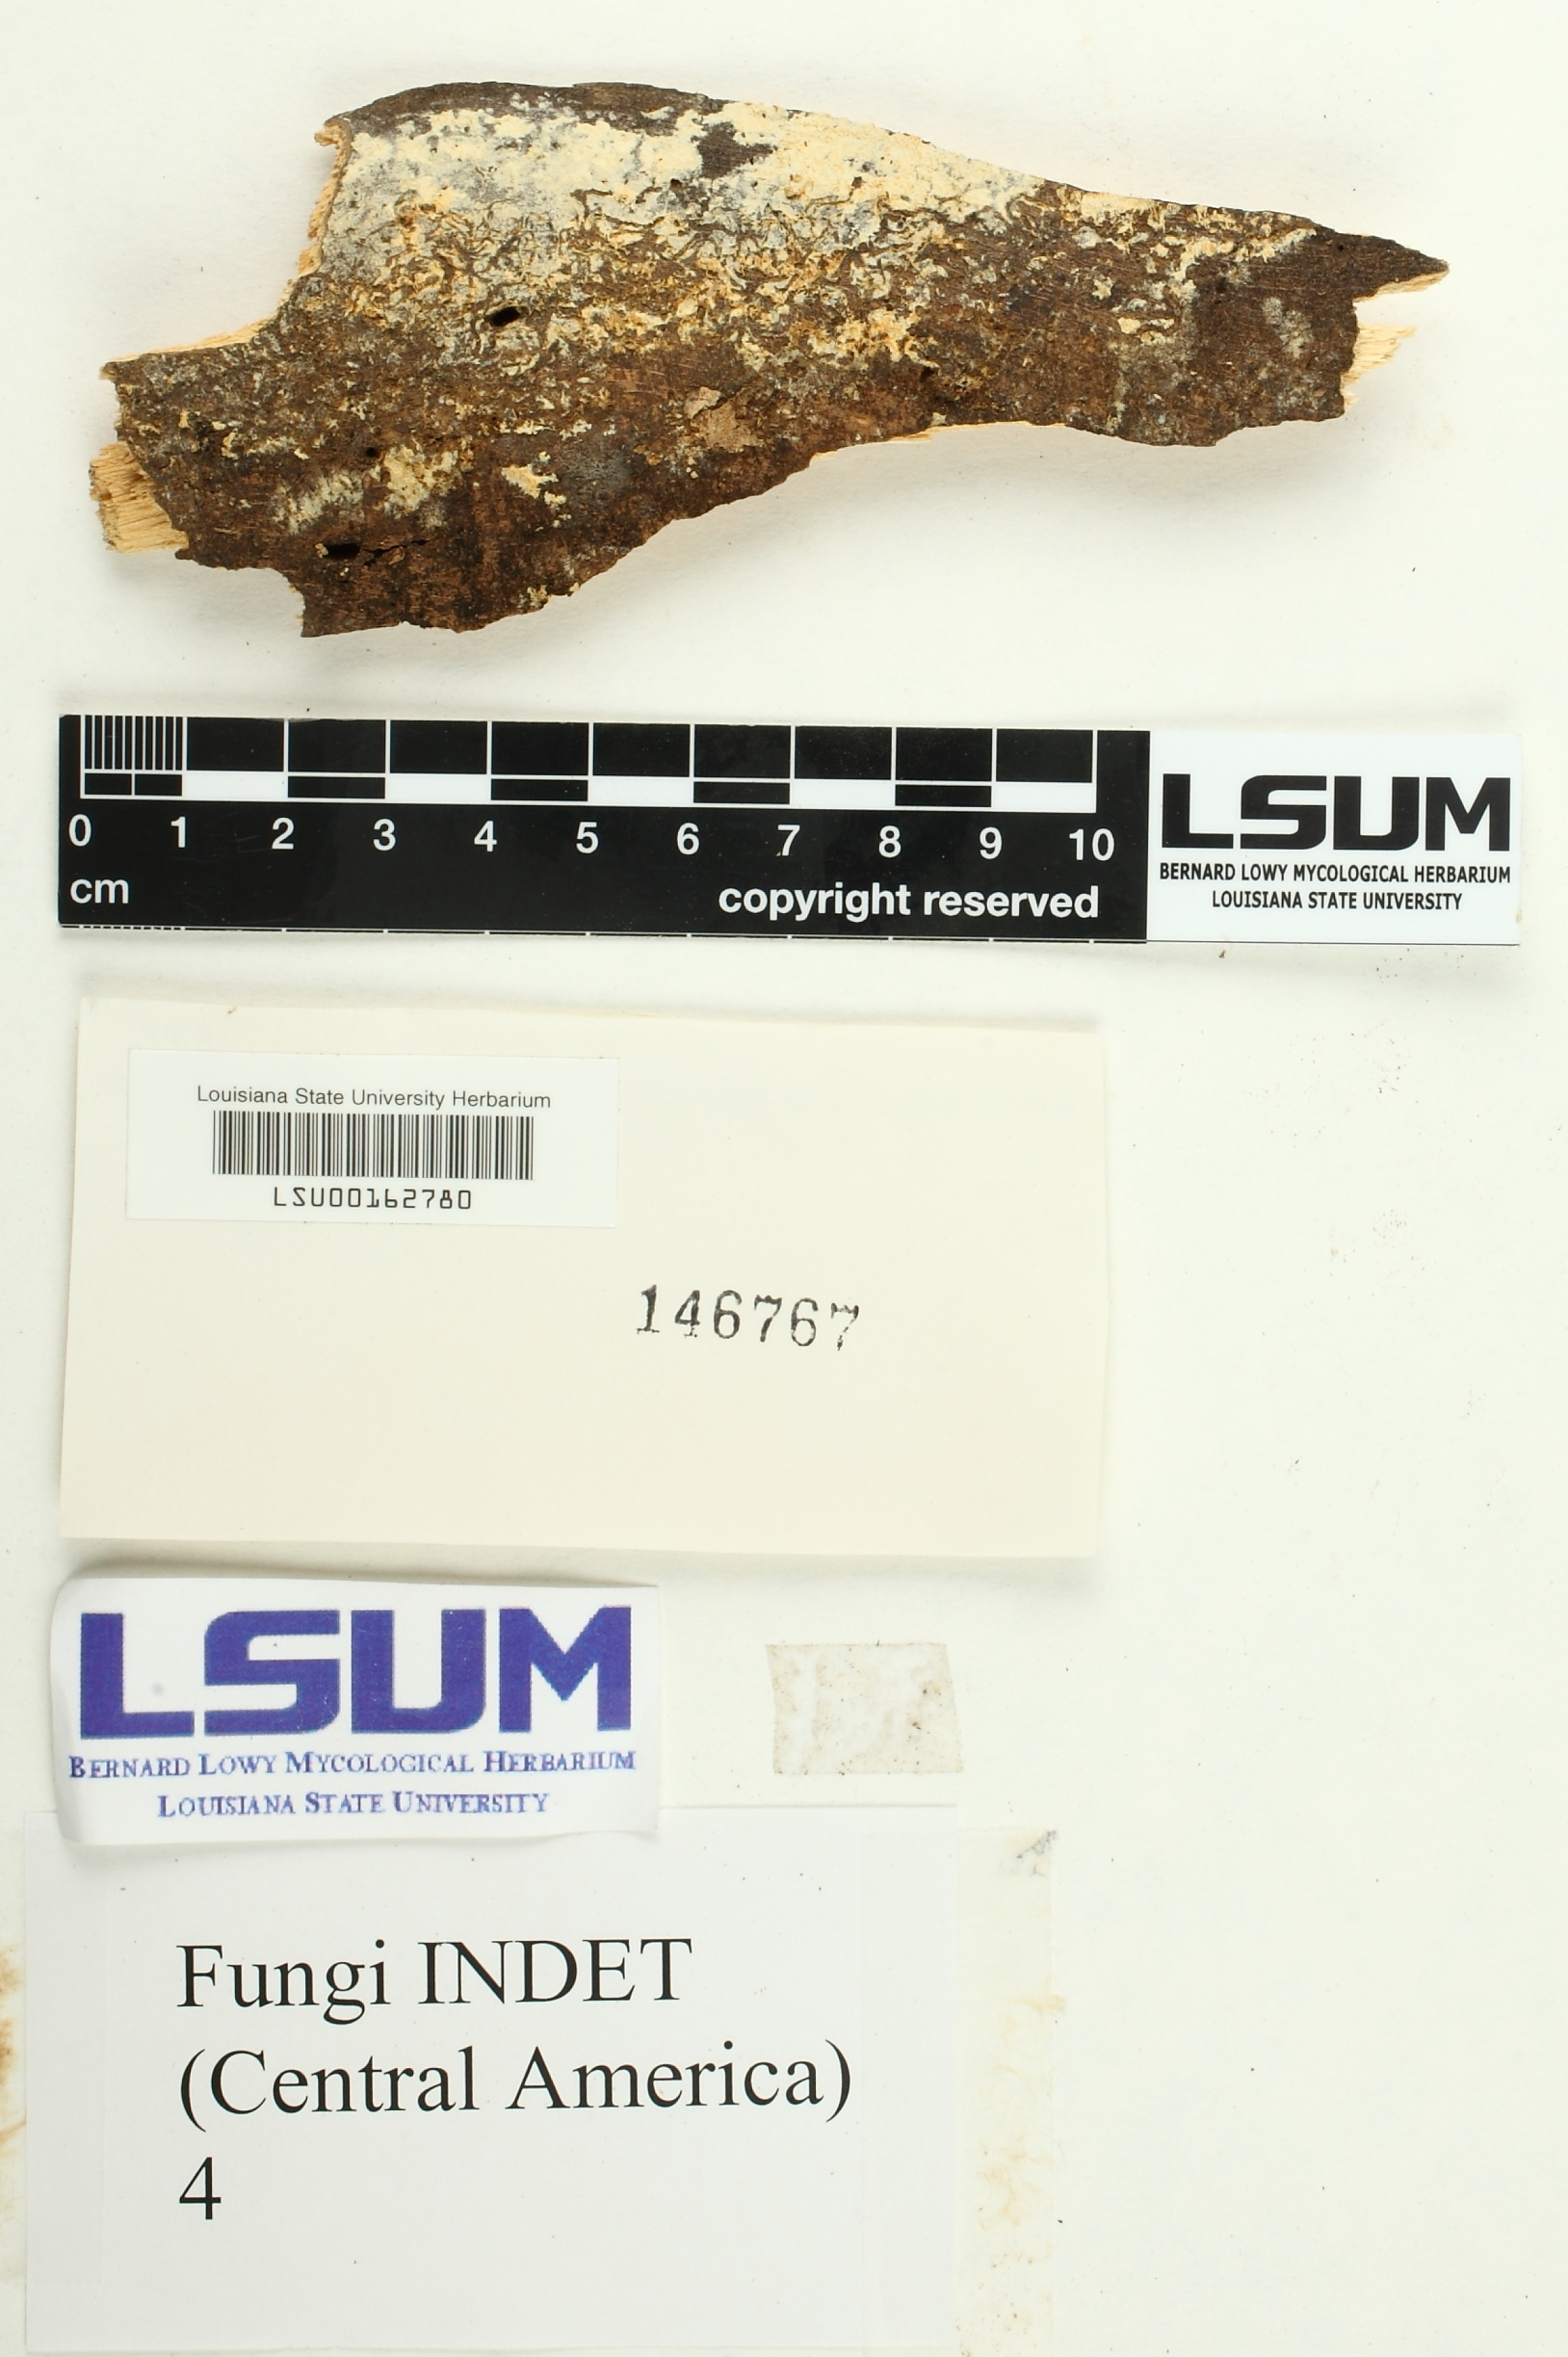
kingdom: Fungi
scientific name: Fungi
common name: Fungi
